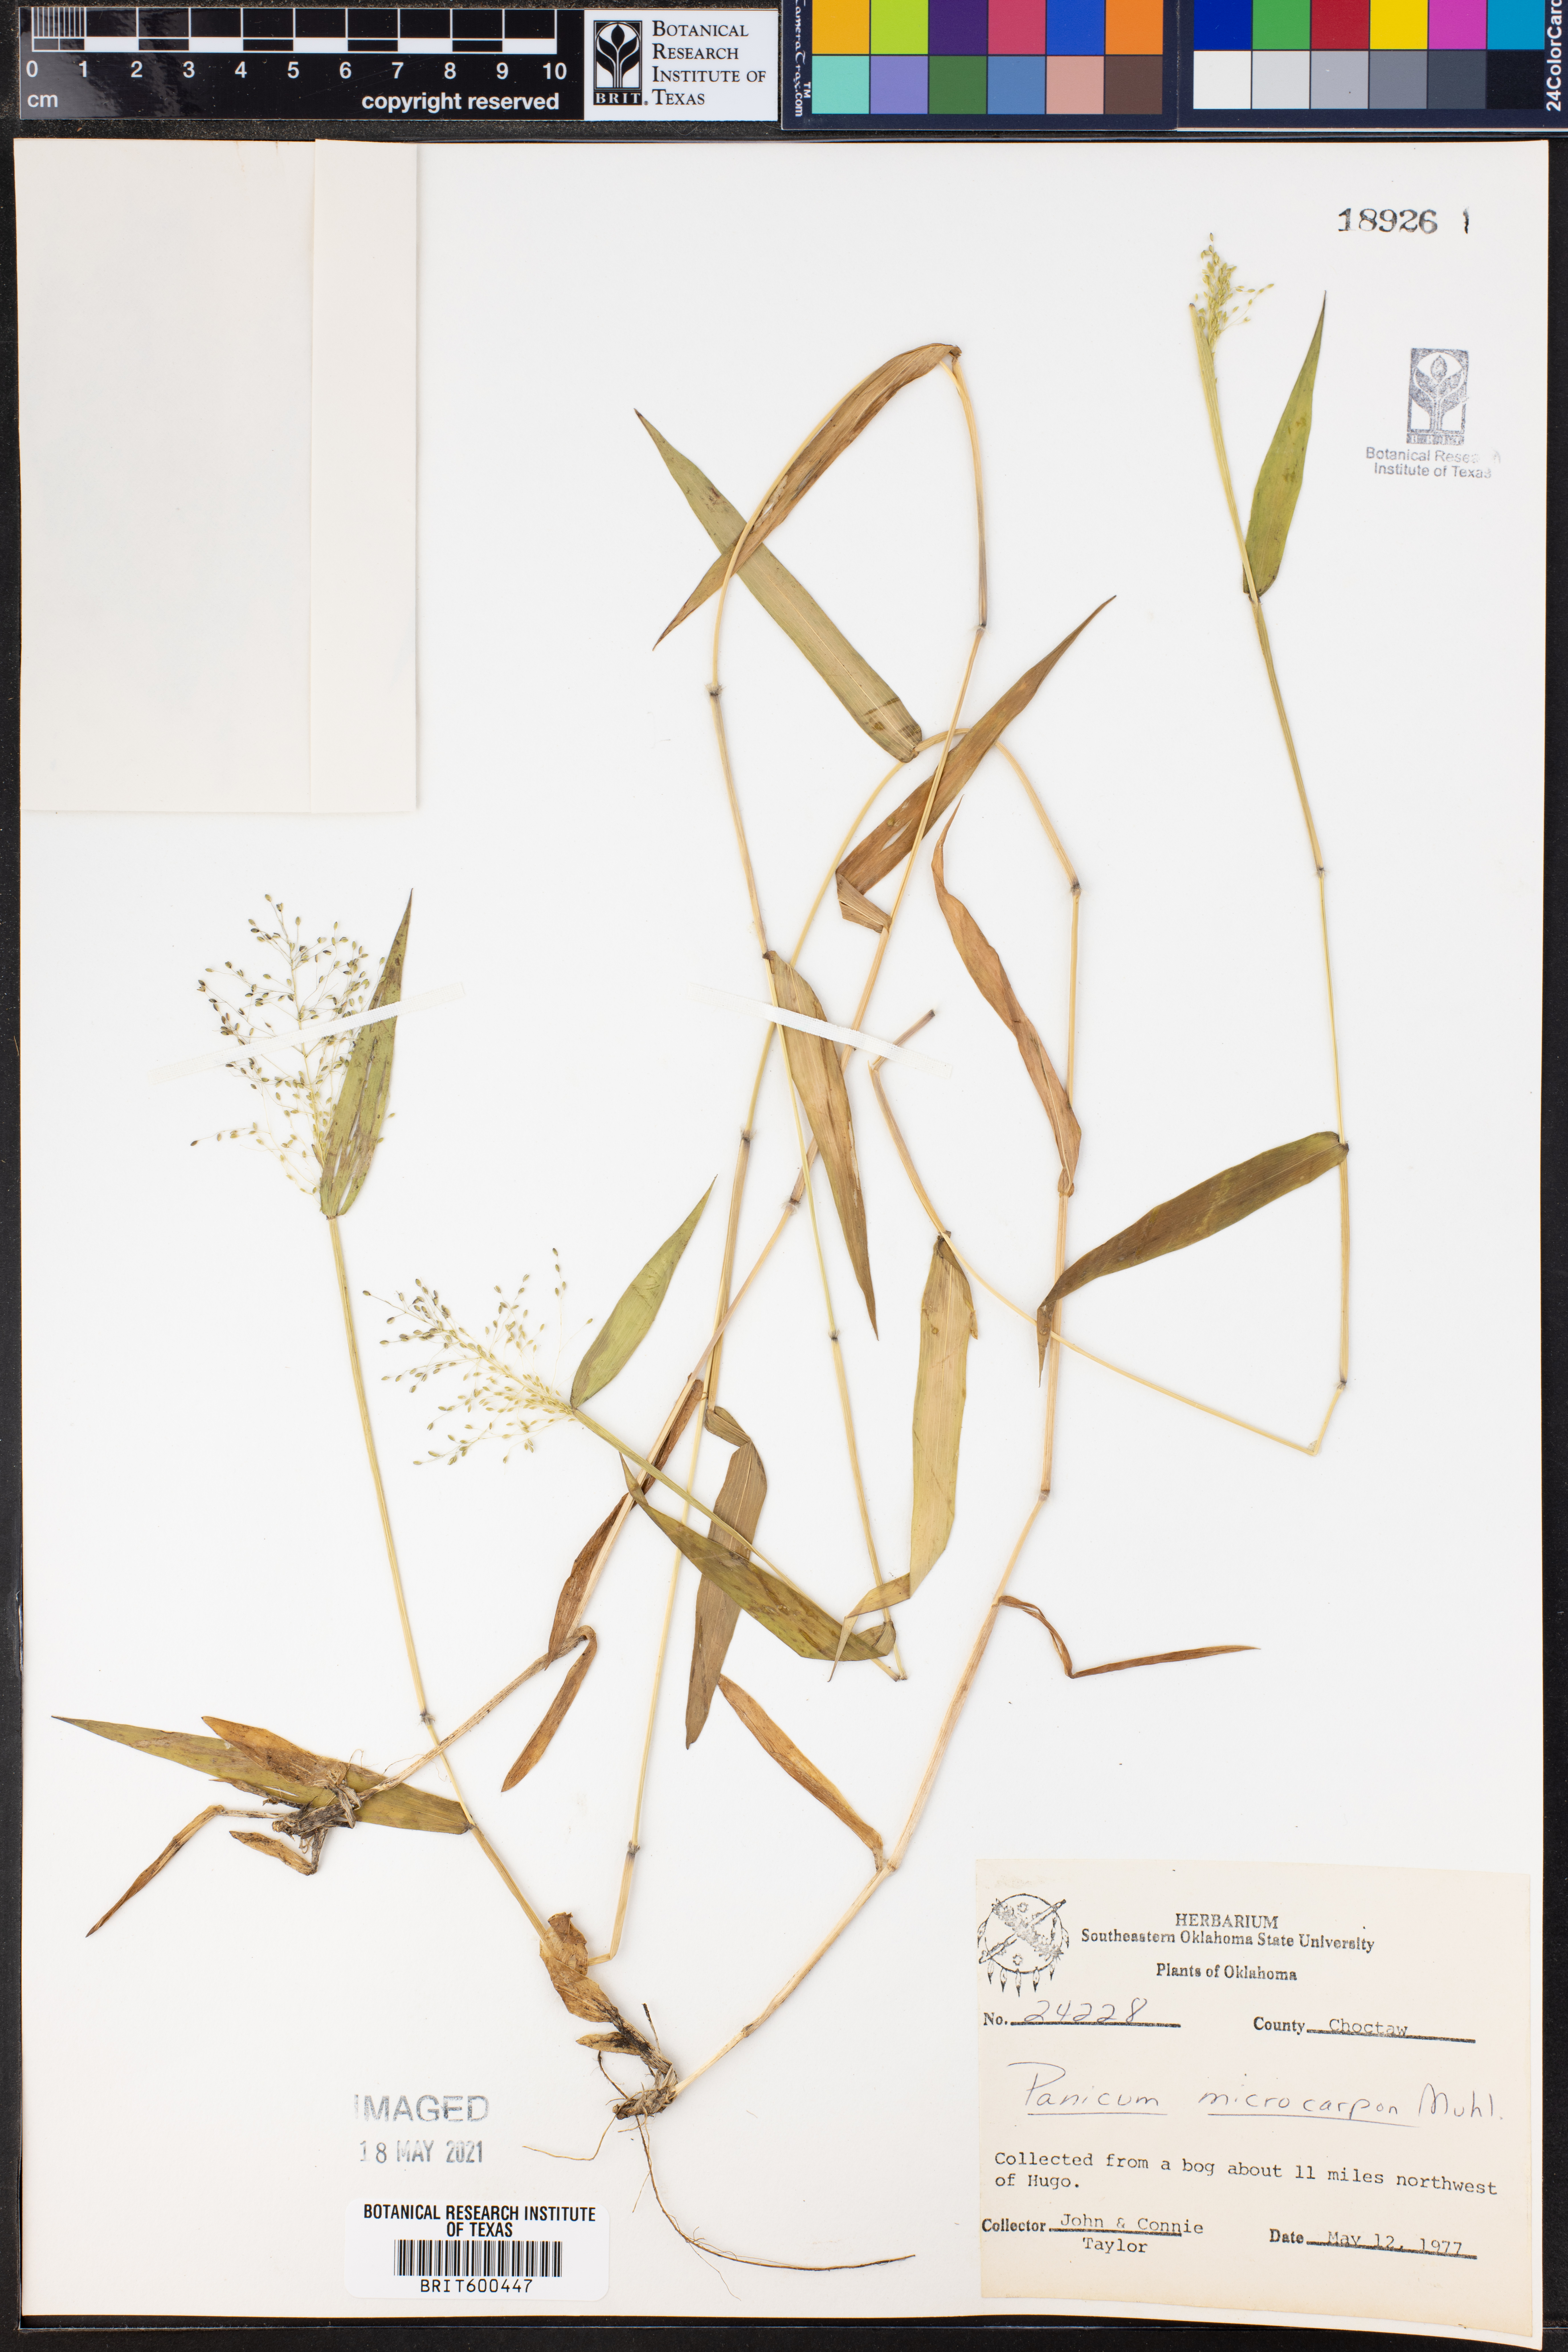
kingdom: Plantae
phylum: Tracheophyta
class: Liliopsida
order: Poales
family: Poaceae
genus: Dichanthelium
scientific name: Dichanthelium polyanthes
